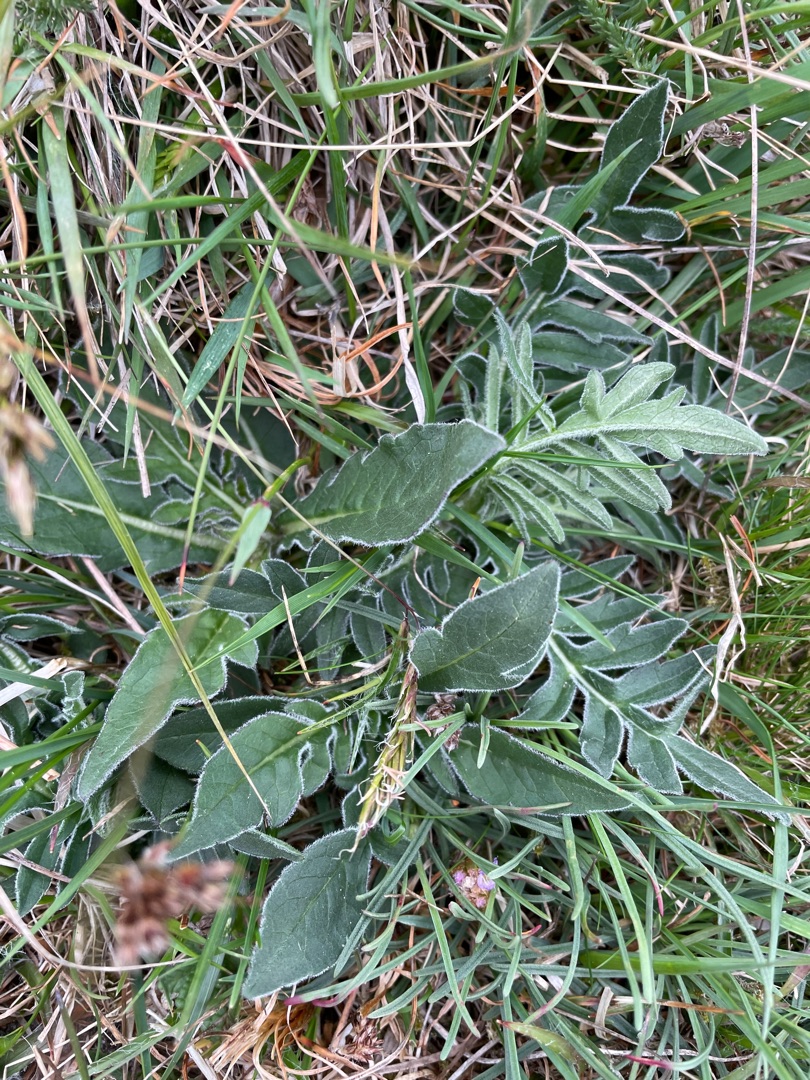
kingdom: Plantae
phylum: Tracheophyta
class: Magnoliopsida
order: Dipsacales
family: Caprifoliaceae
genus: Knautia
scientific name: Knautia arvensis
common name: Blåhat
